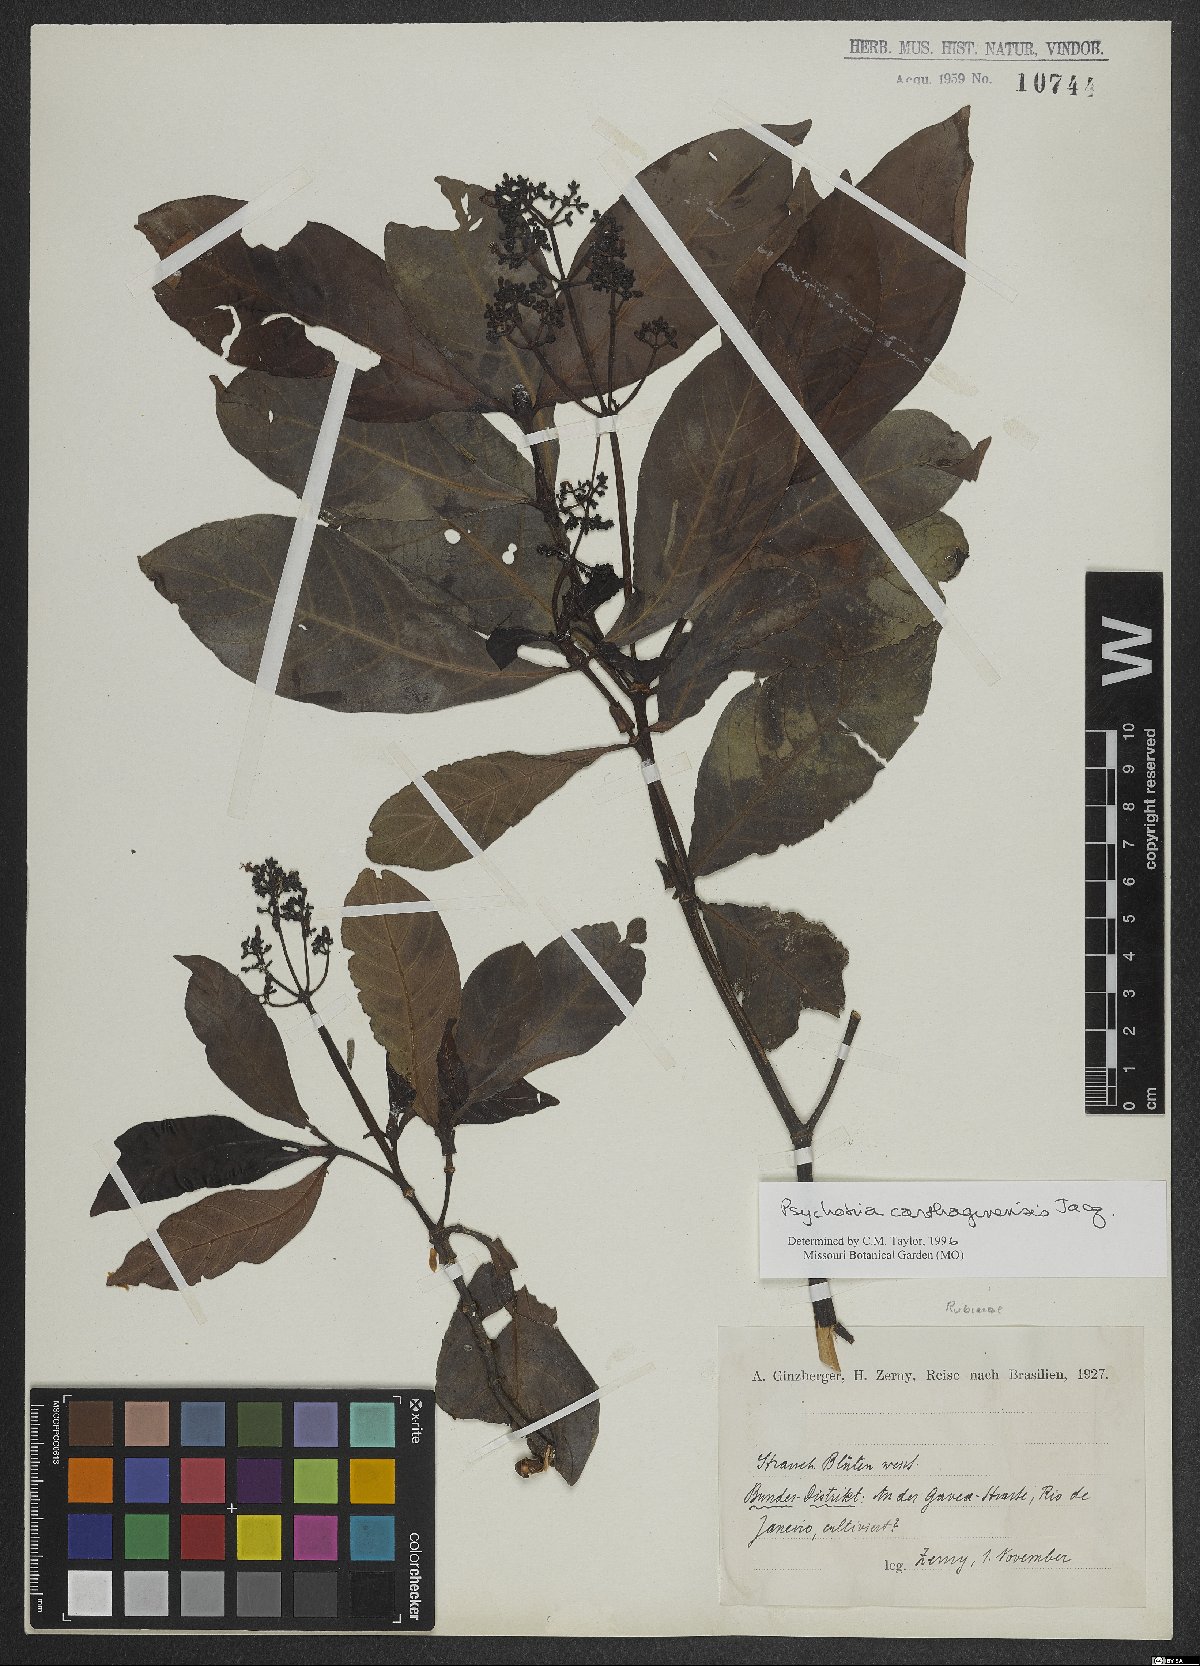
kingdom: Plantae
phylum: Tracheophyta
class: Magnoliopsida
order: Gentianales
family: Rubiaceae
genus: Psychotria
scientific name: Psychotria carthagenensis
